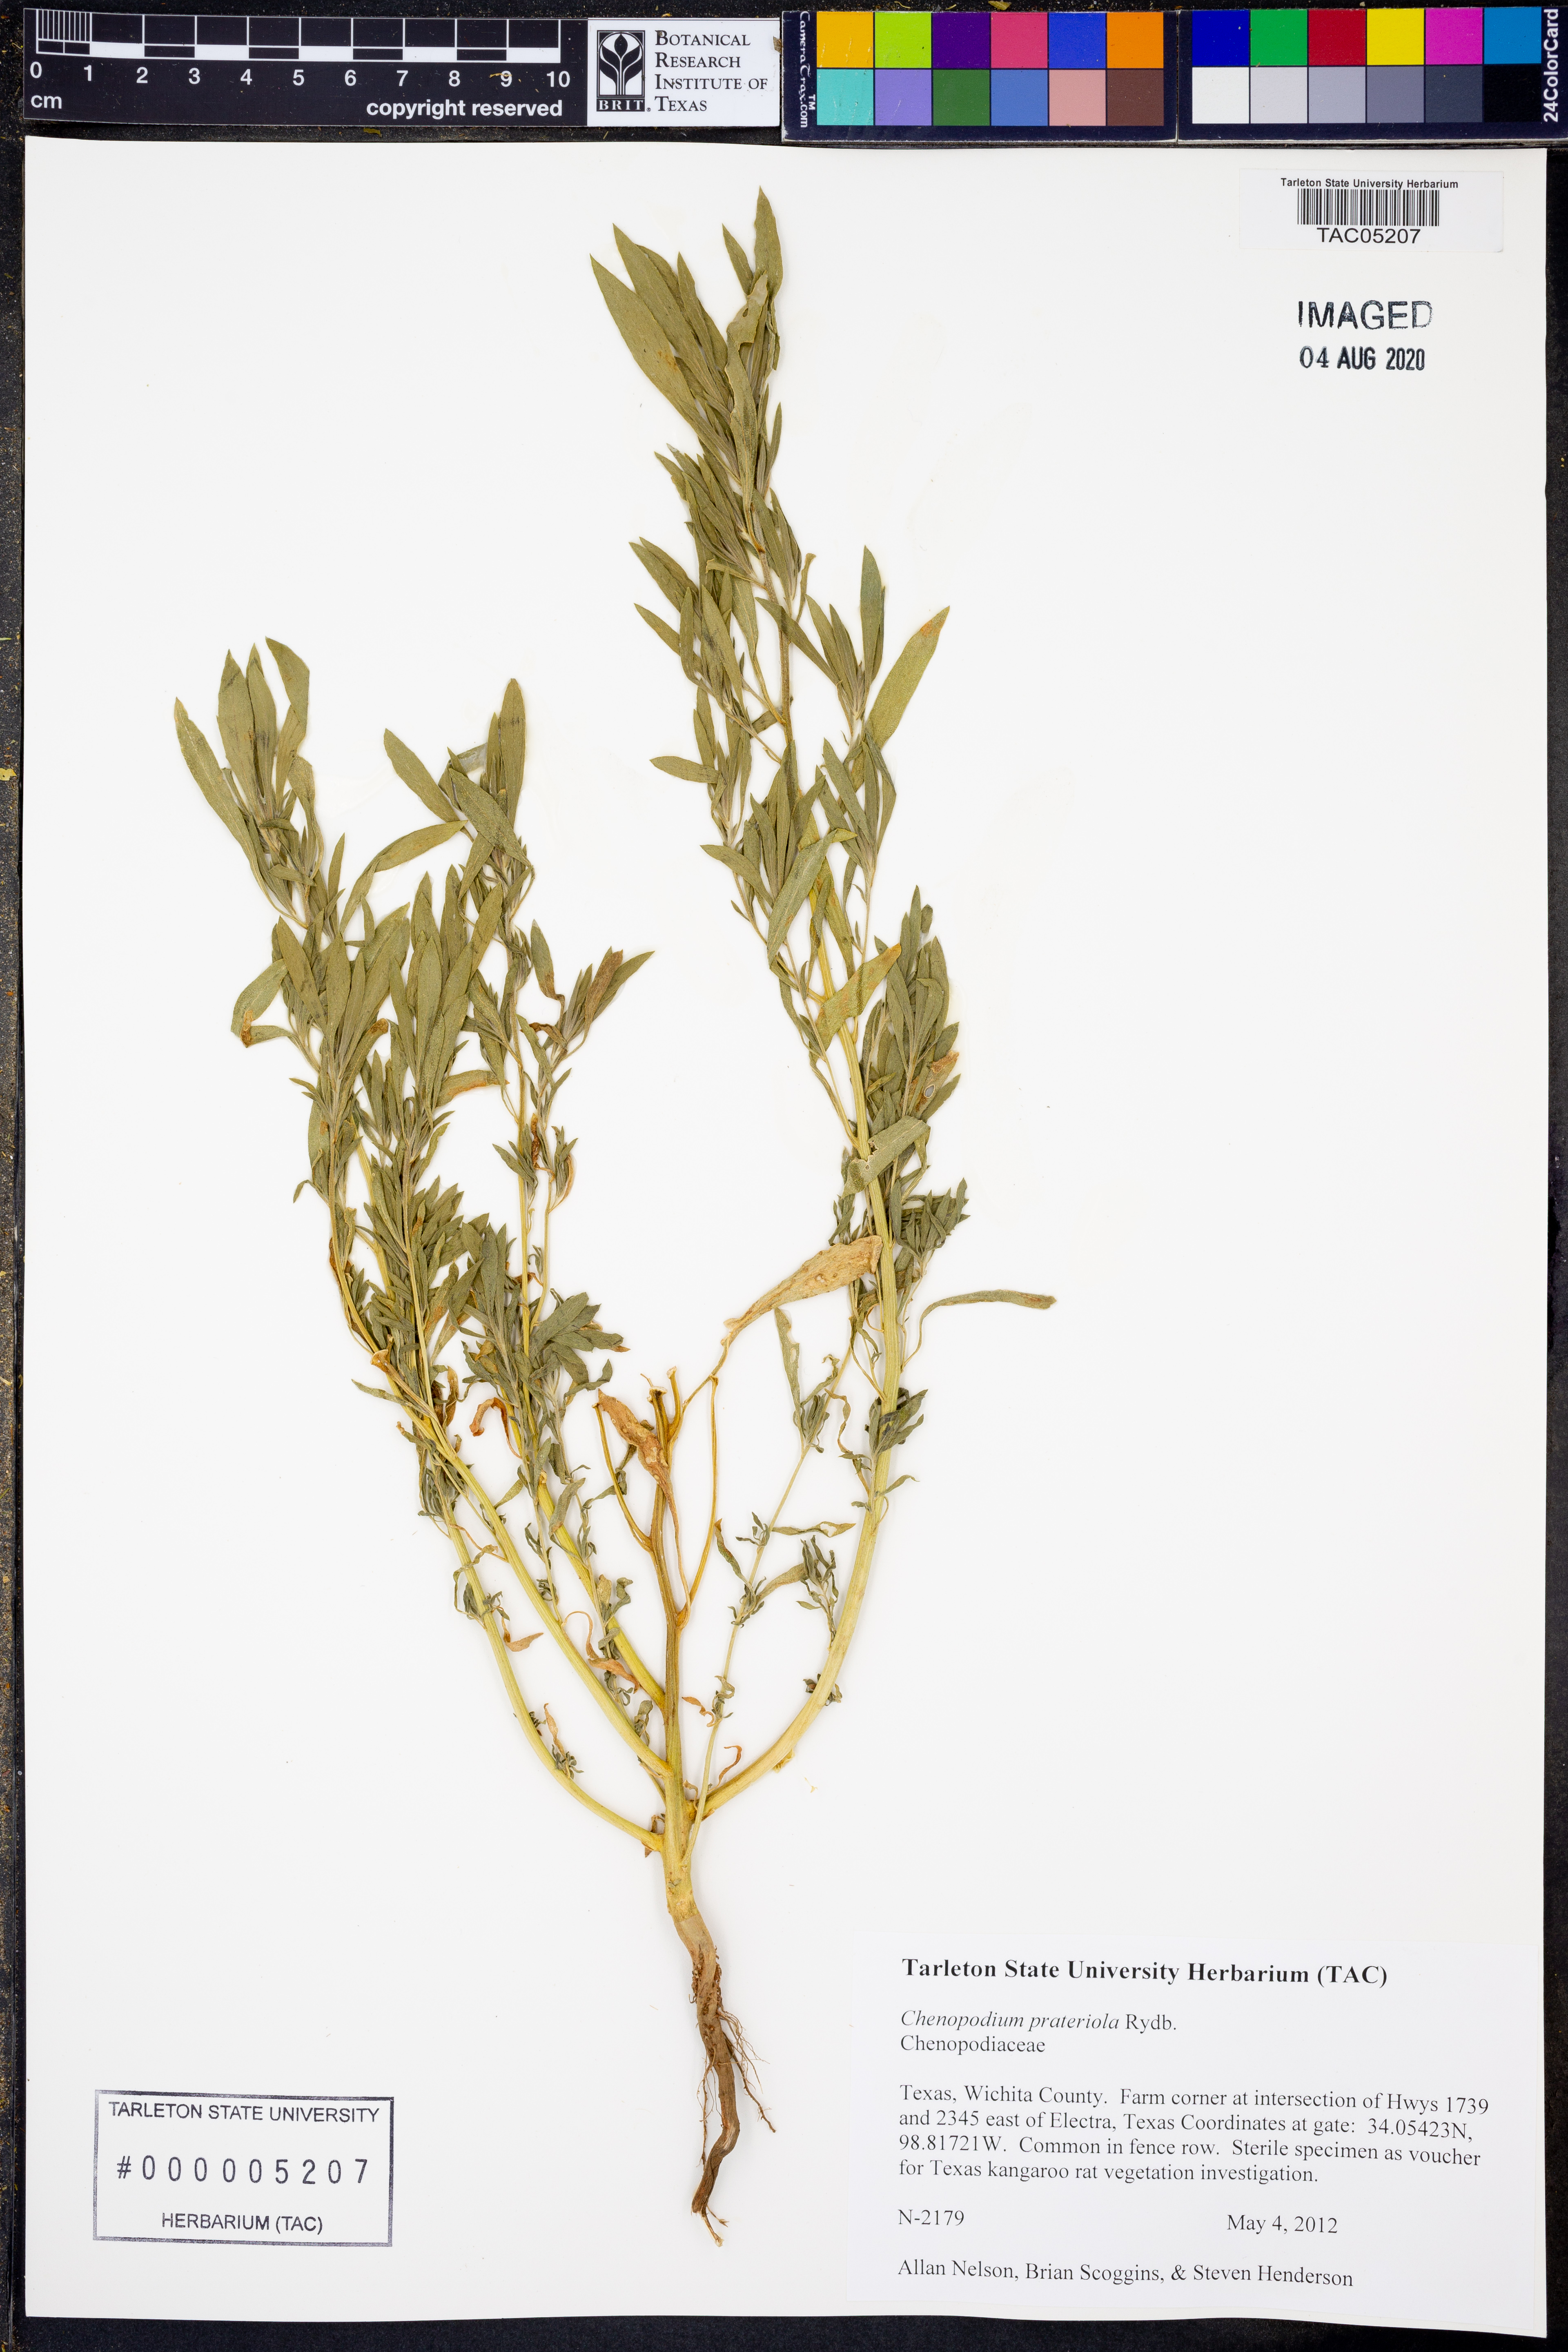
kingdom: Plantae
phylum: Tracheophyta
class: Magnoliopsida
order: Caryophyllales
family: Amaranthaceae
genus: Chenopodium
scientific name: Chenopodium pratericola
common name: Desert goosefoot
